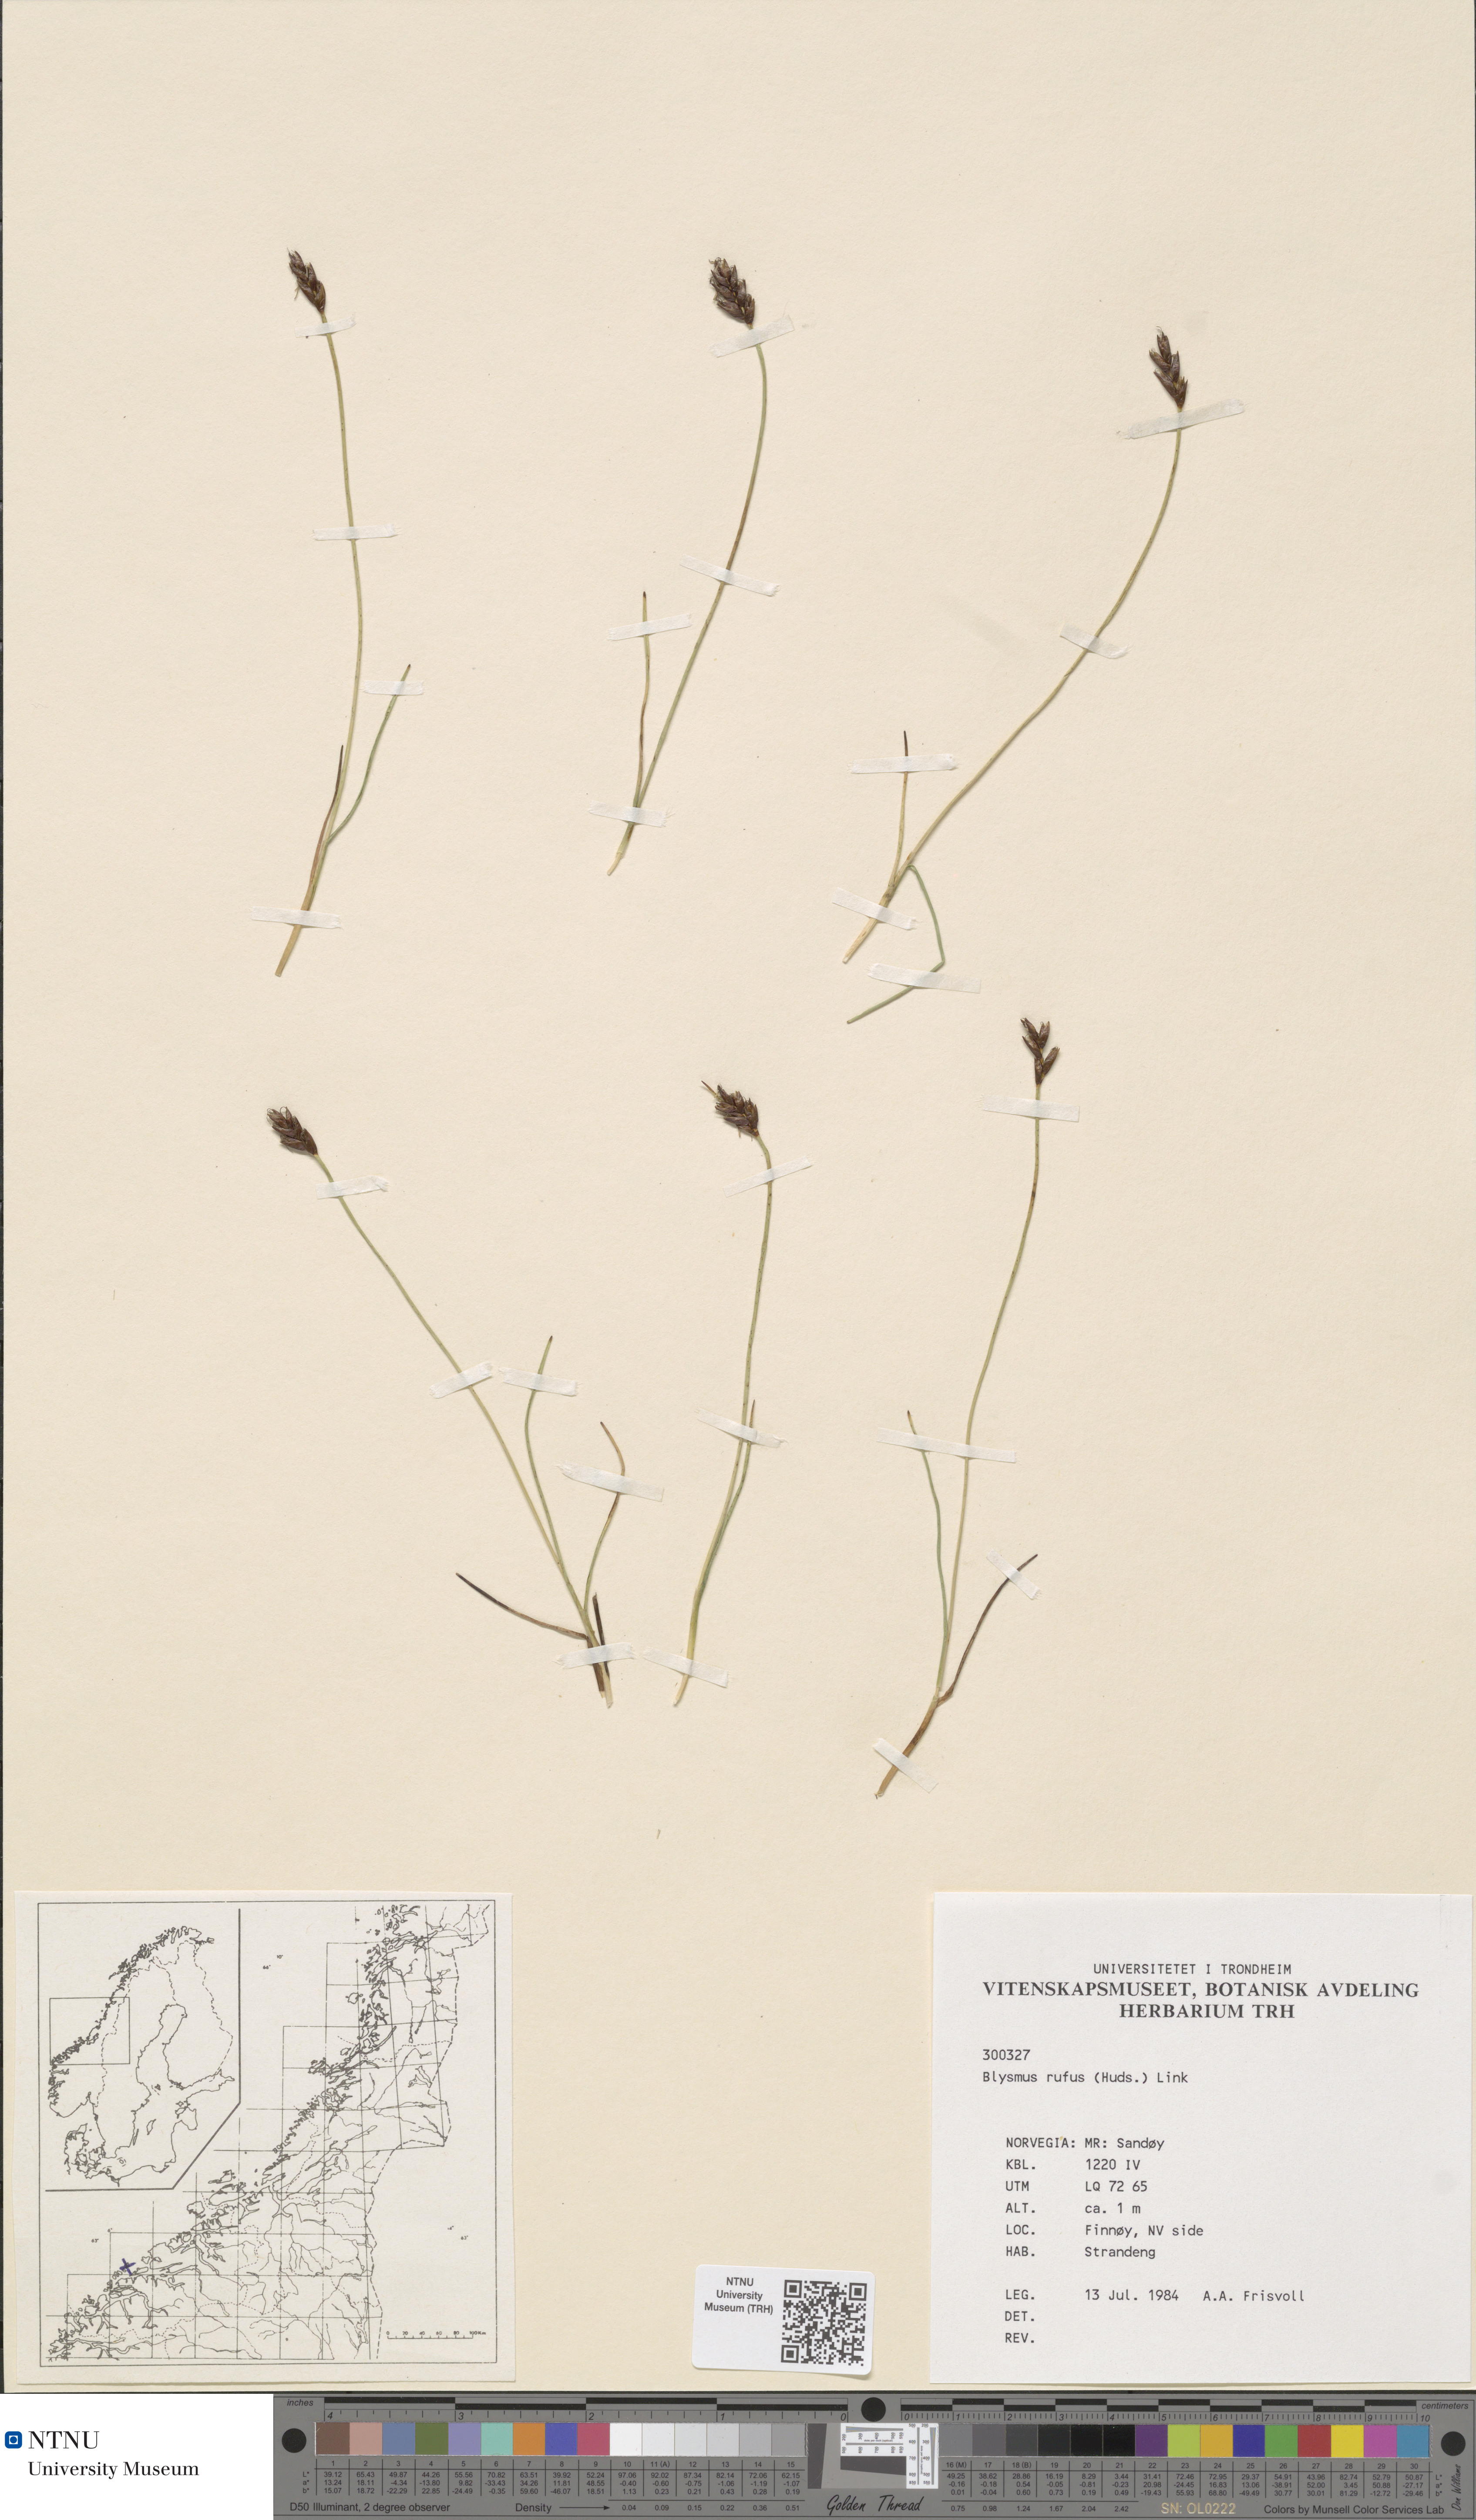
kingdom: Plantae
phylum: Tracheophyta
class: Liliopsida
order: Poales
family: Cyperaceae
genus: Blysmus
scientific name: Blysmus rufus
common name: Saltmarsh flat-sedge
